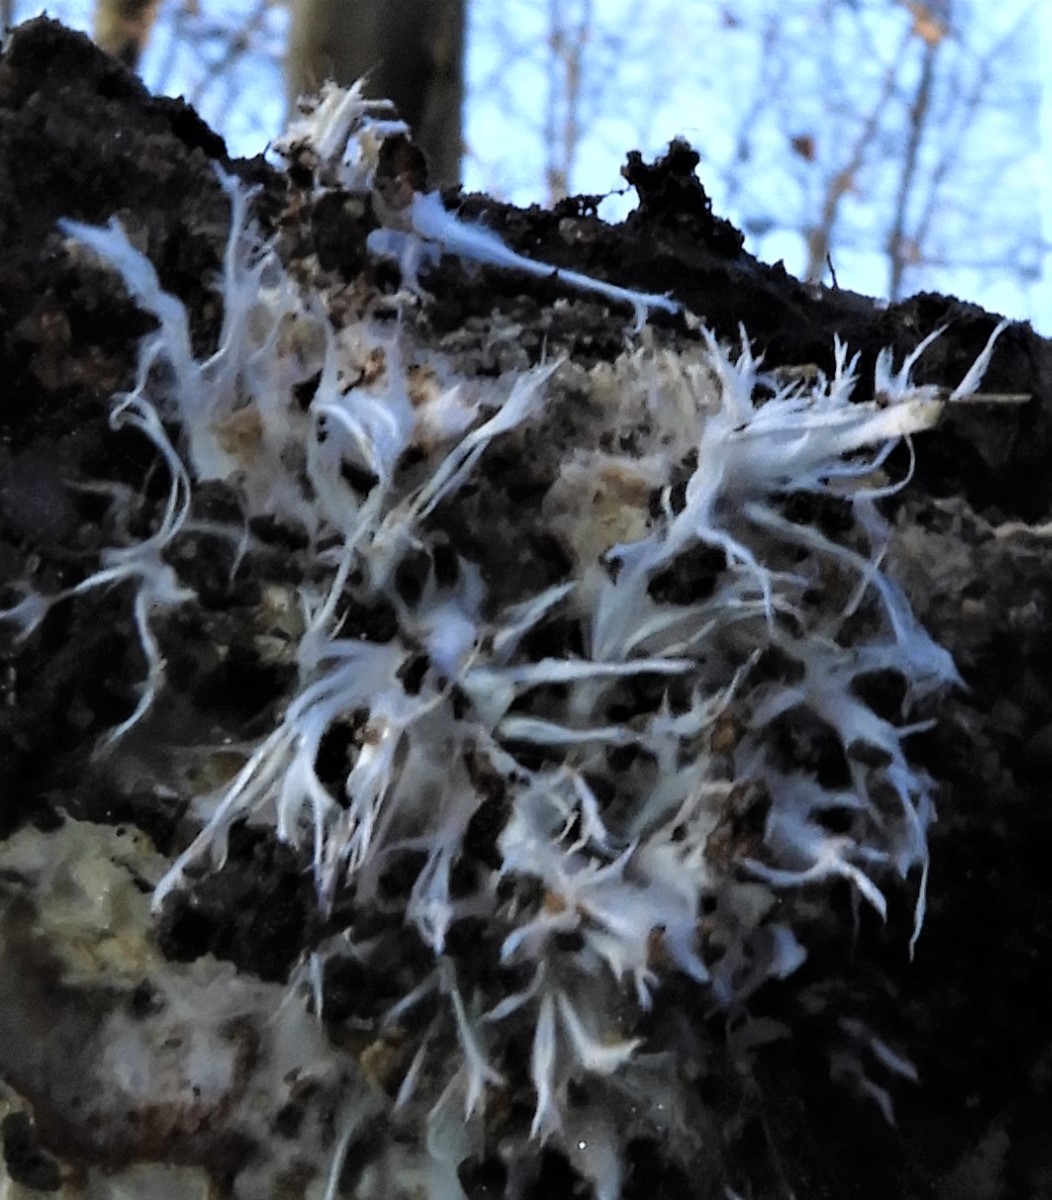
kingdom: Fungi
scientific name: Fungi
